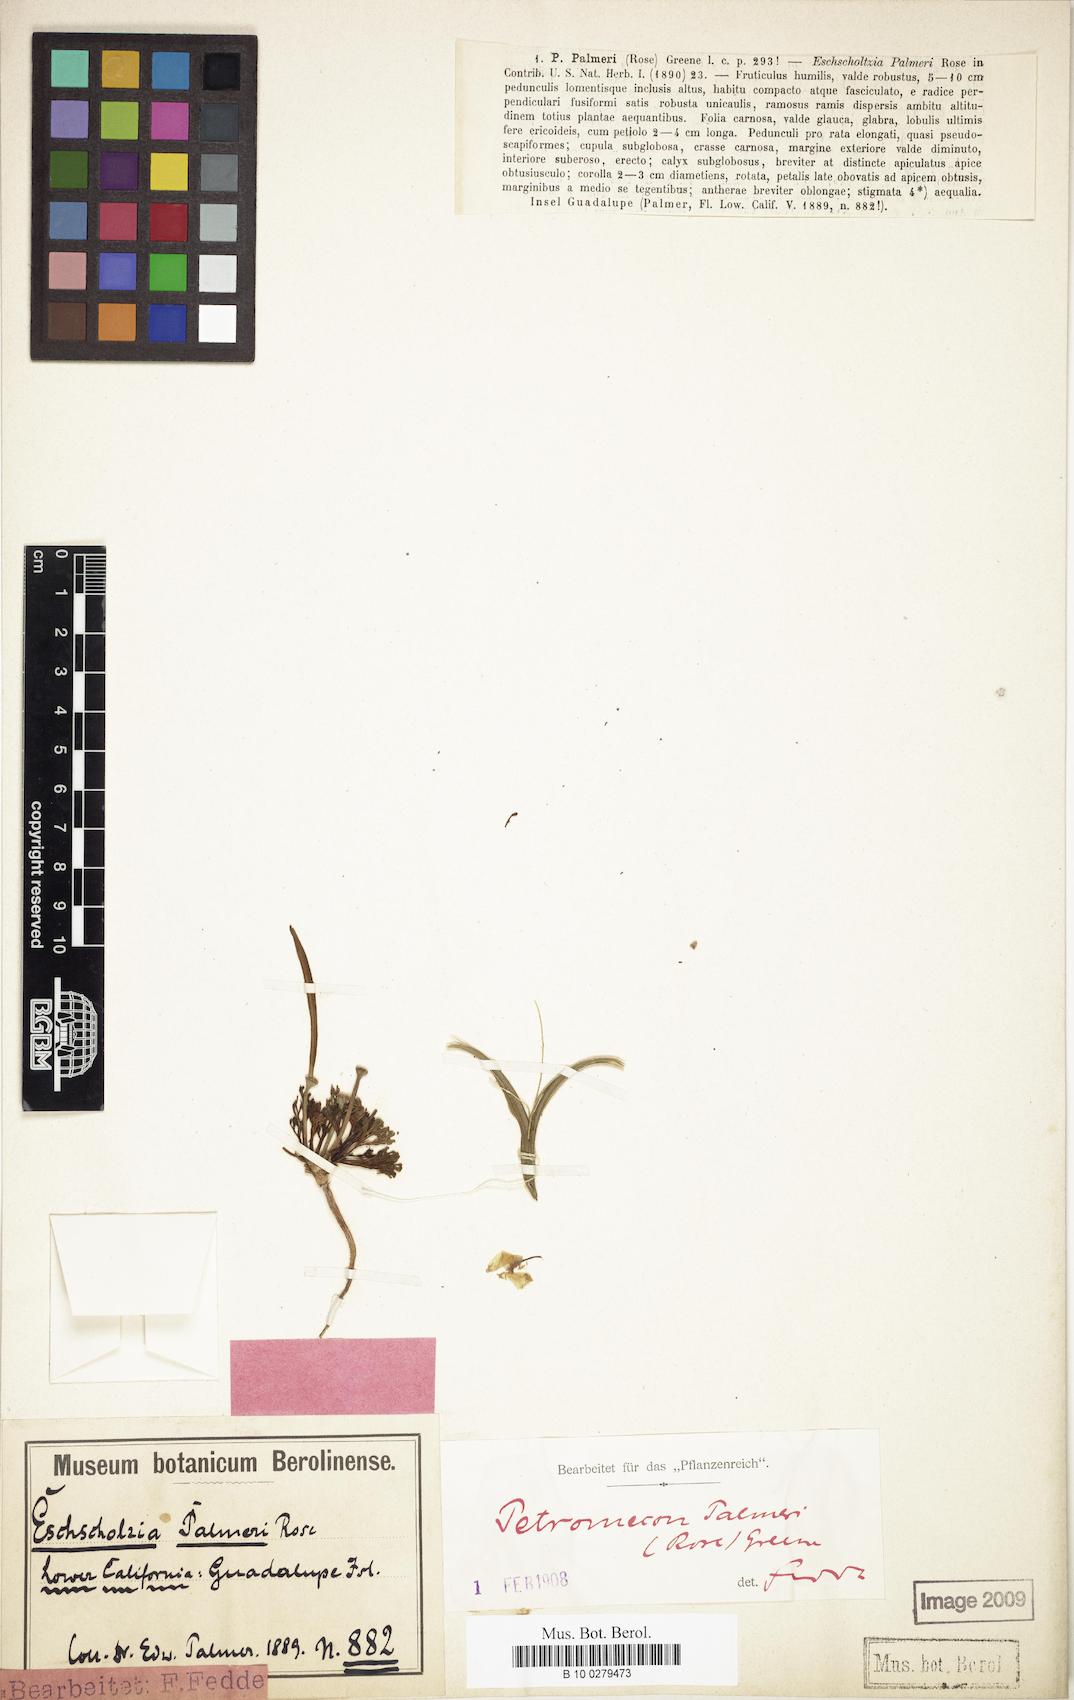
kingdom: Plantae
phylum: Tracheophyta
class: Magnoliopsida
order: Ranunculales
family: Papaveraceae
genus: Eschscholzia
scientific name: Eschscholzia palmeri
